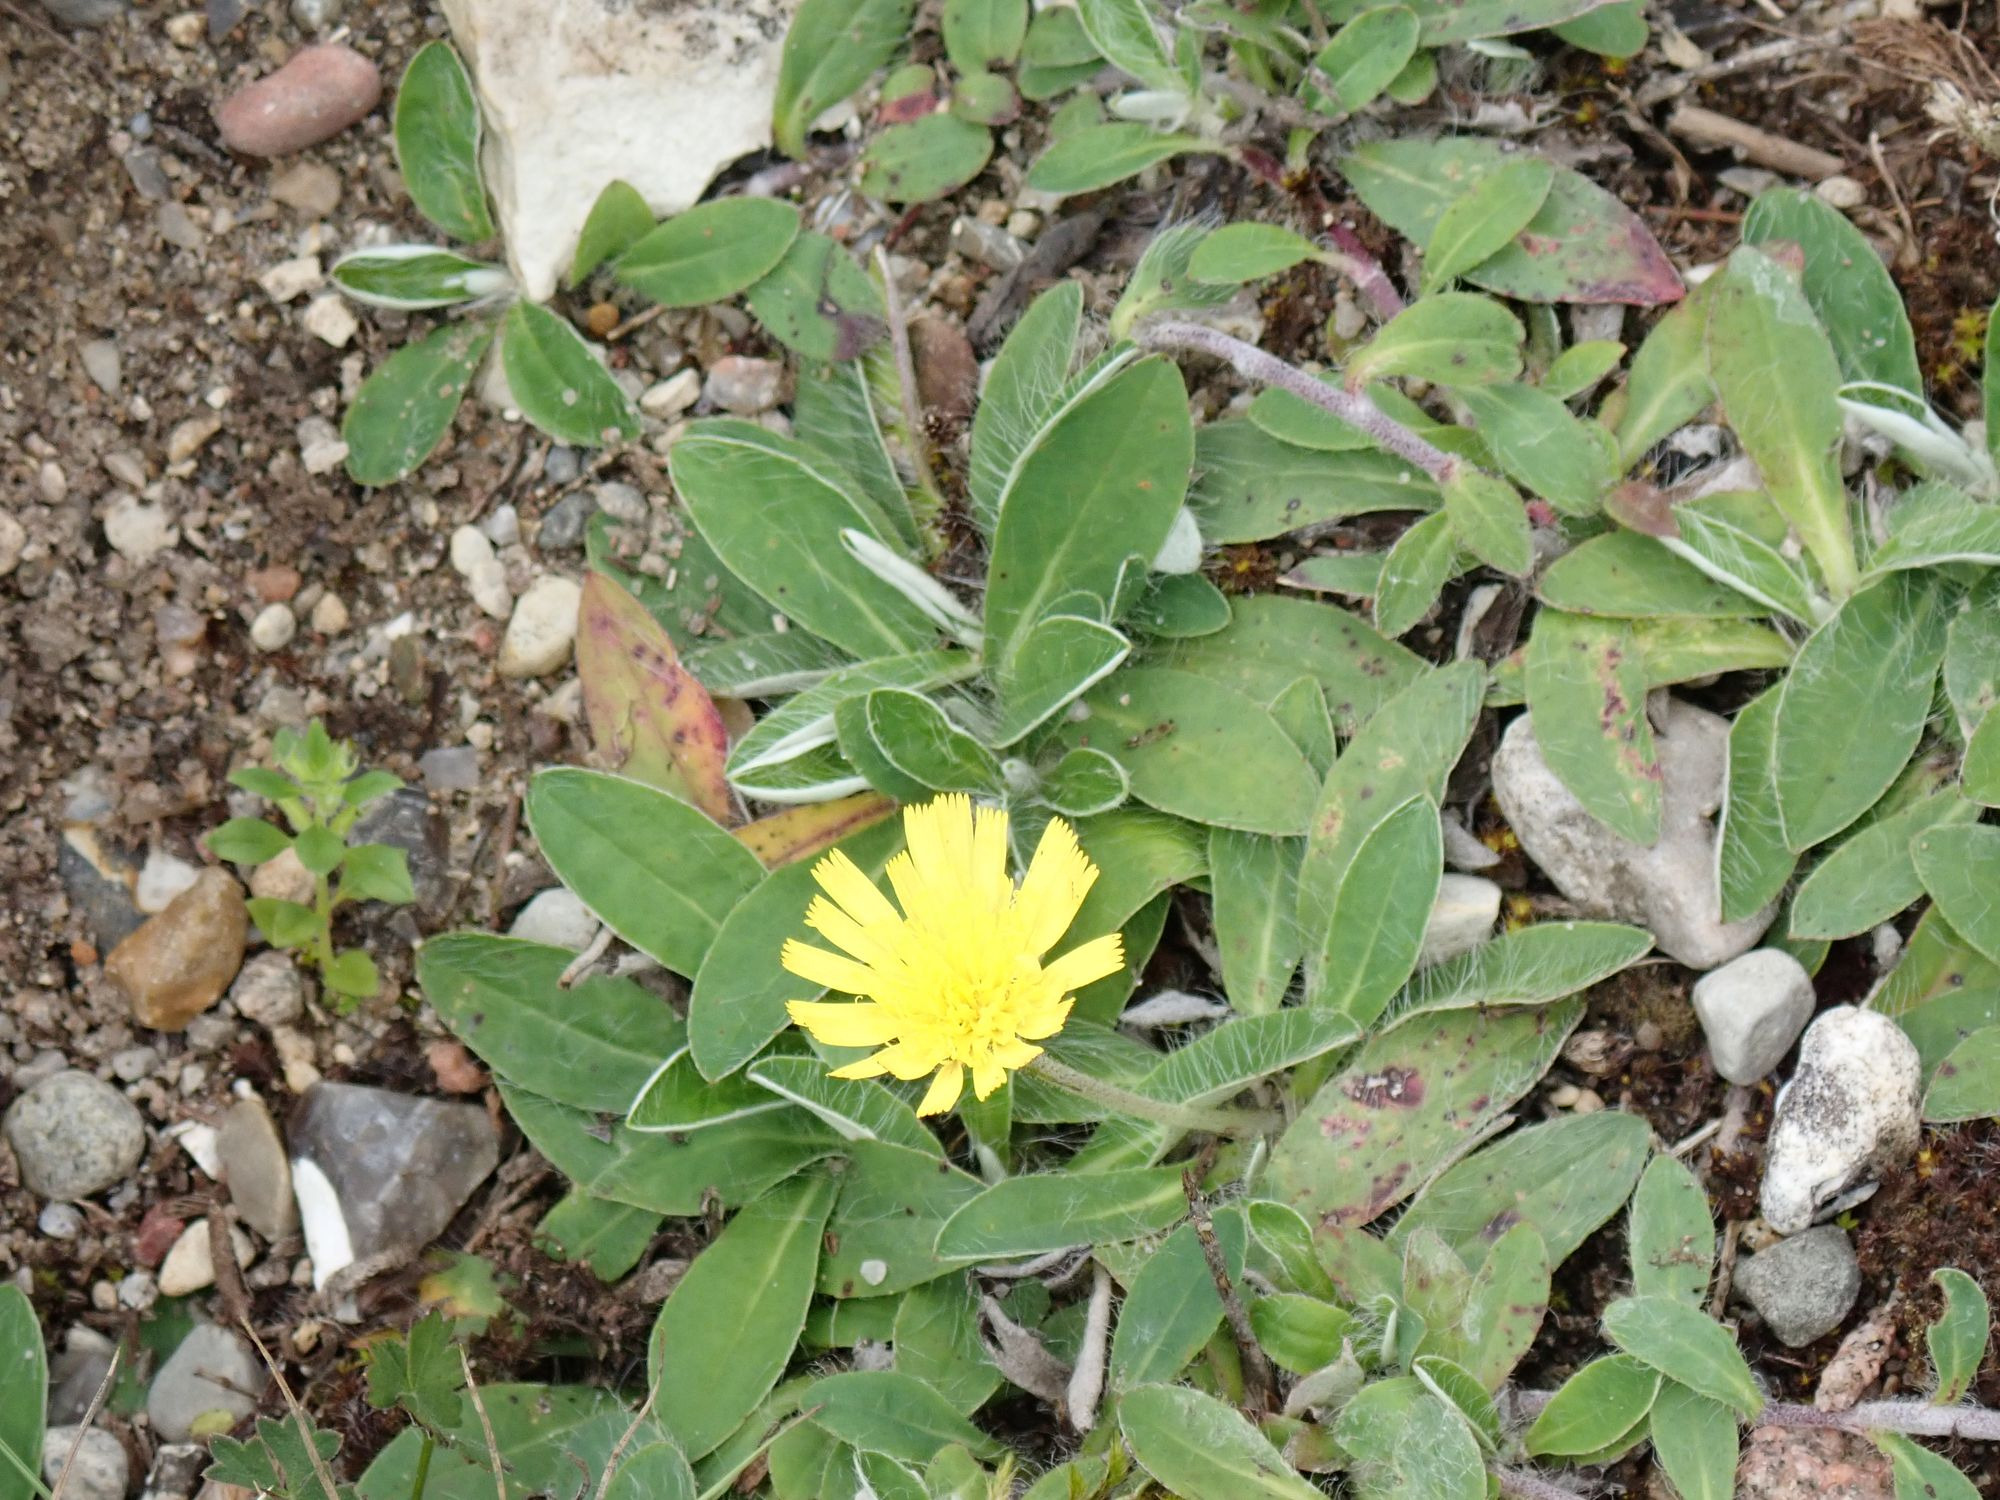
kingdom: Plantae
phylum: Tracheophyta
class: Magnoliopsida
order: Asterales
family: Asteraceae
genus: Pilosella
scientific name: Pilosella officinarum
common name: Håret høgeurt
